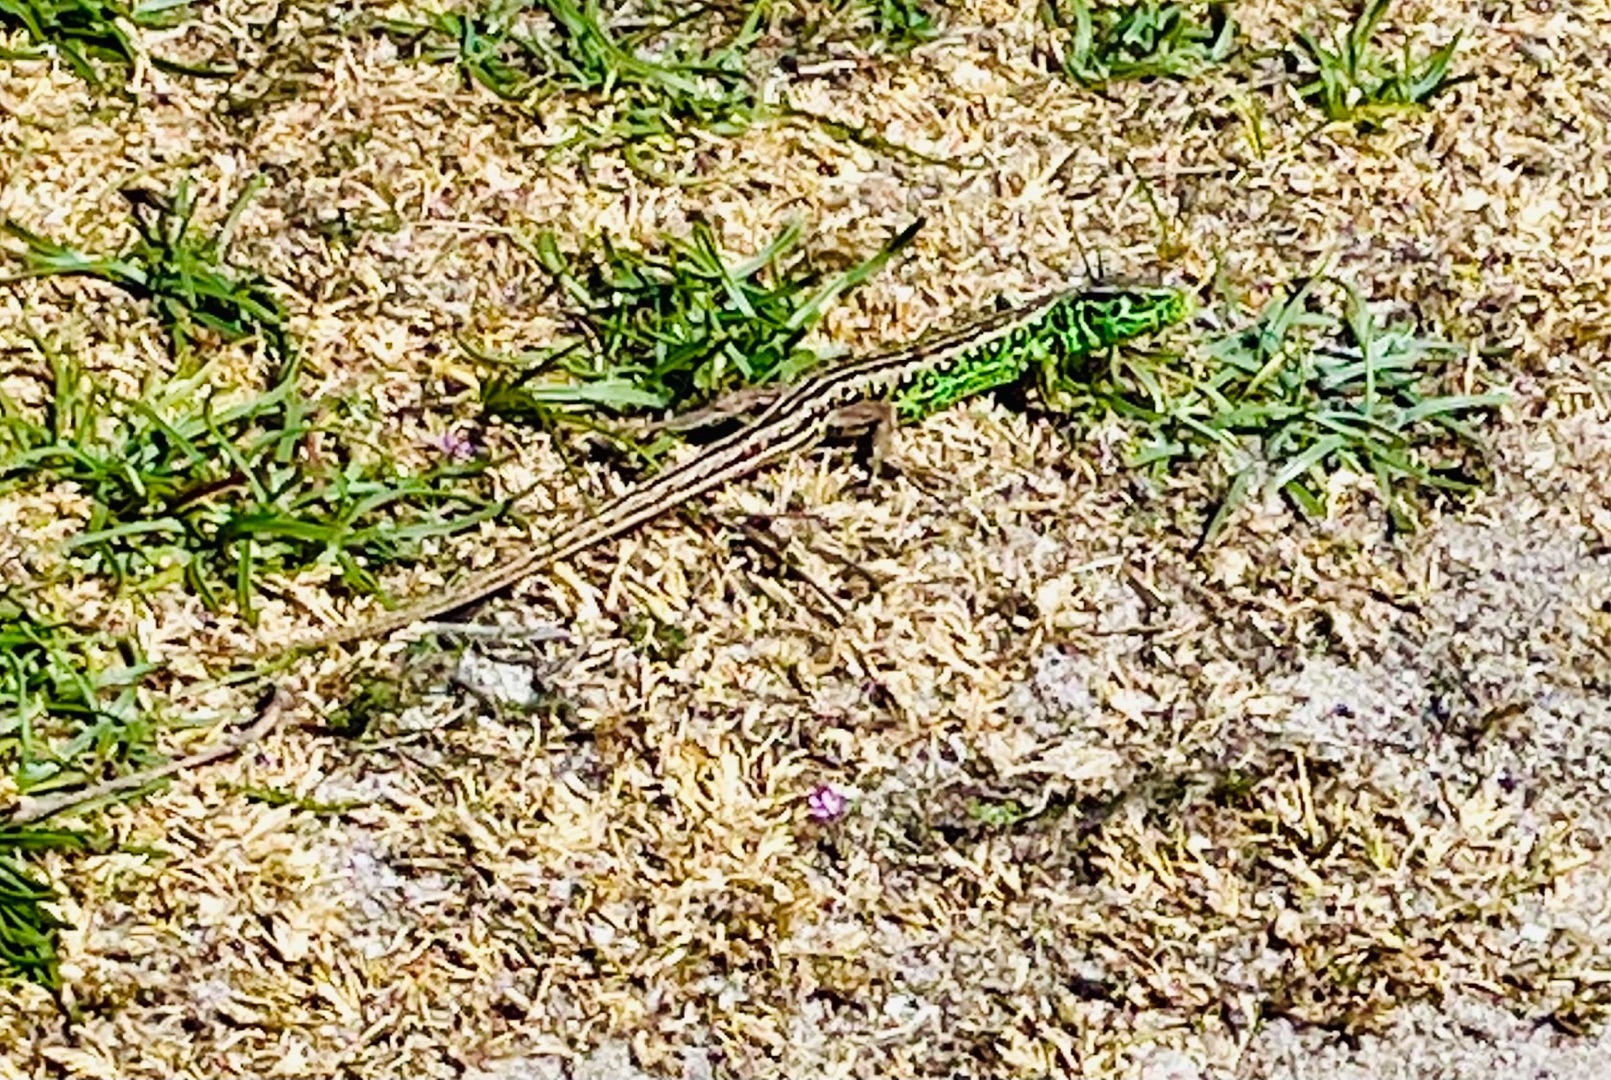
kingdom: Animalia
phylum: Chordata
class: Squamata
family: Lacertidae
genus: Lacerta
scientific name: Lacerta agilis
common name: Markfirben
